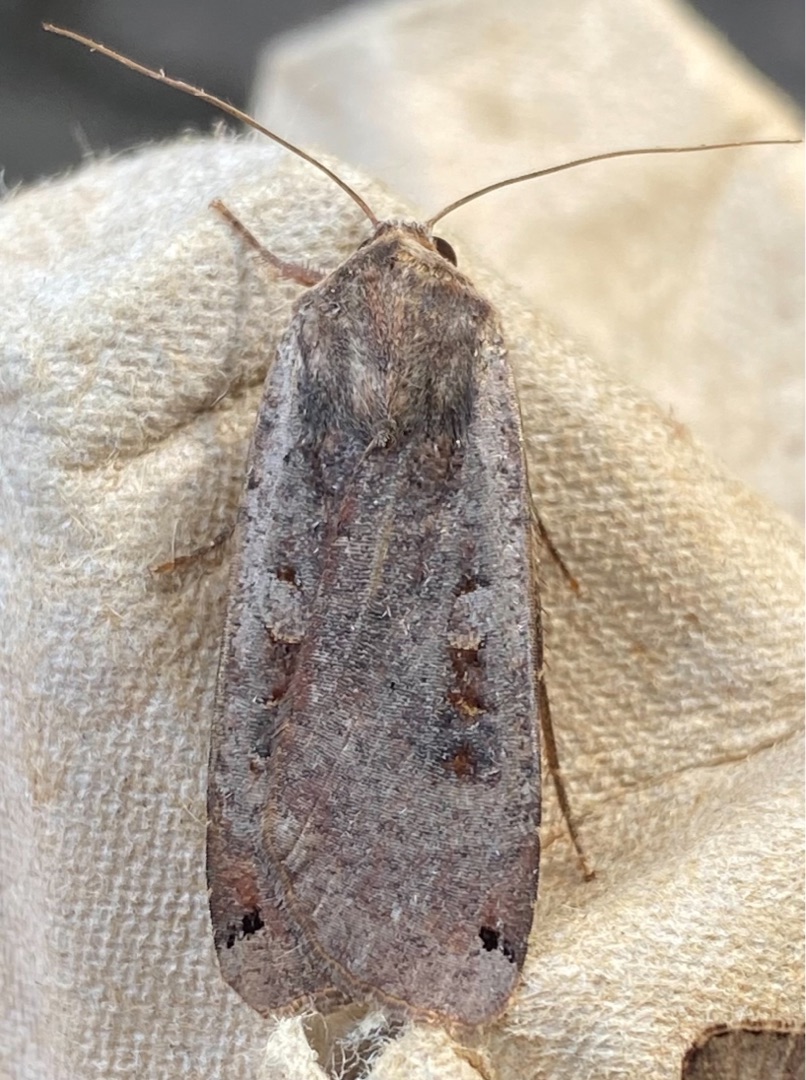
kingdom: Animalia
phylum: Arthropoda
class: Insecta
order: Lepidoptera
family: Noctuidae
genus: Noctua
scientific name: Noctua pronuba
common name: Stor smutugle
